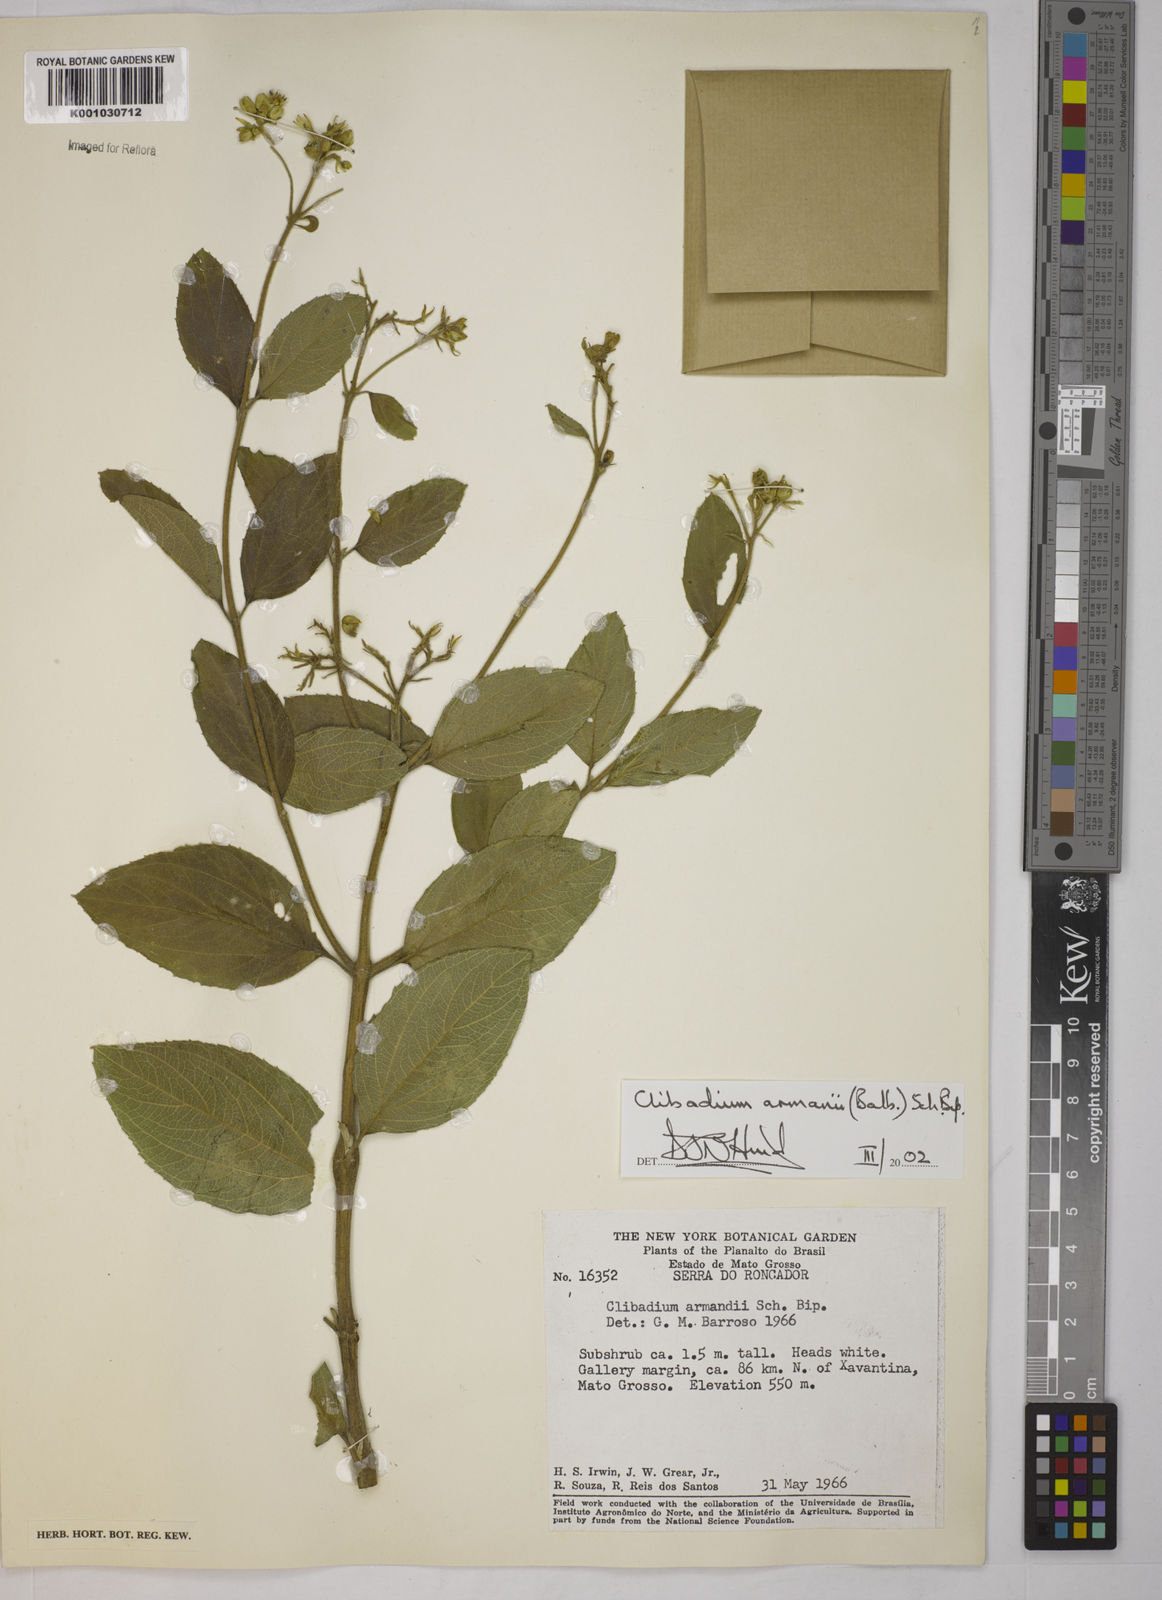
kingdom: Plantae
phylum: Tracheophyta
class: Magnoliopsida
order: Asterales
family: Asteraceae
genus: Clibadium
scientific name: Clibadium armanii
